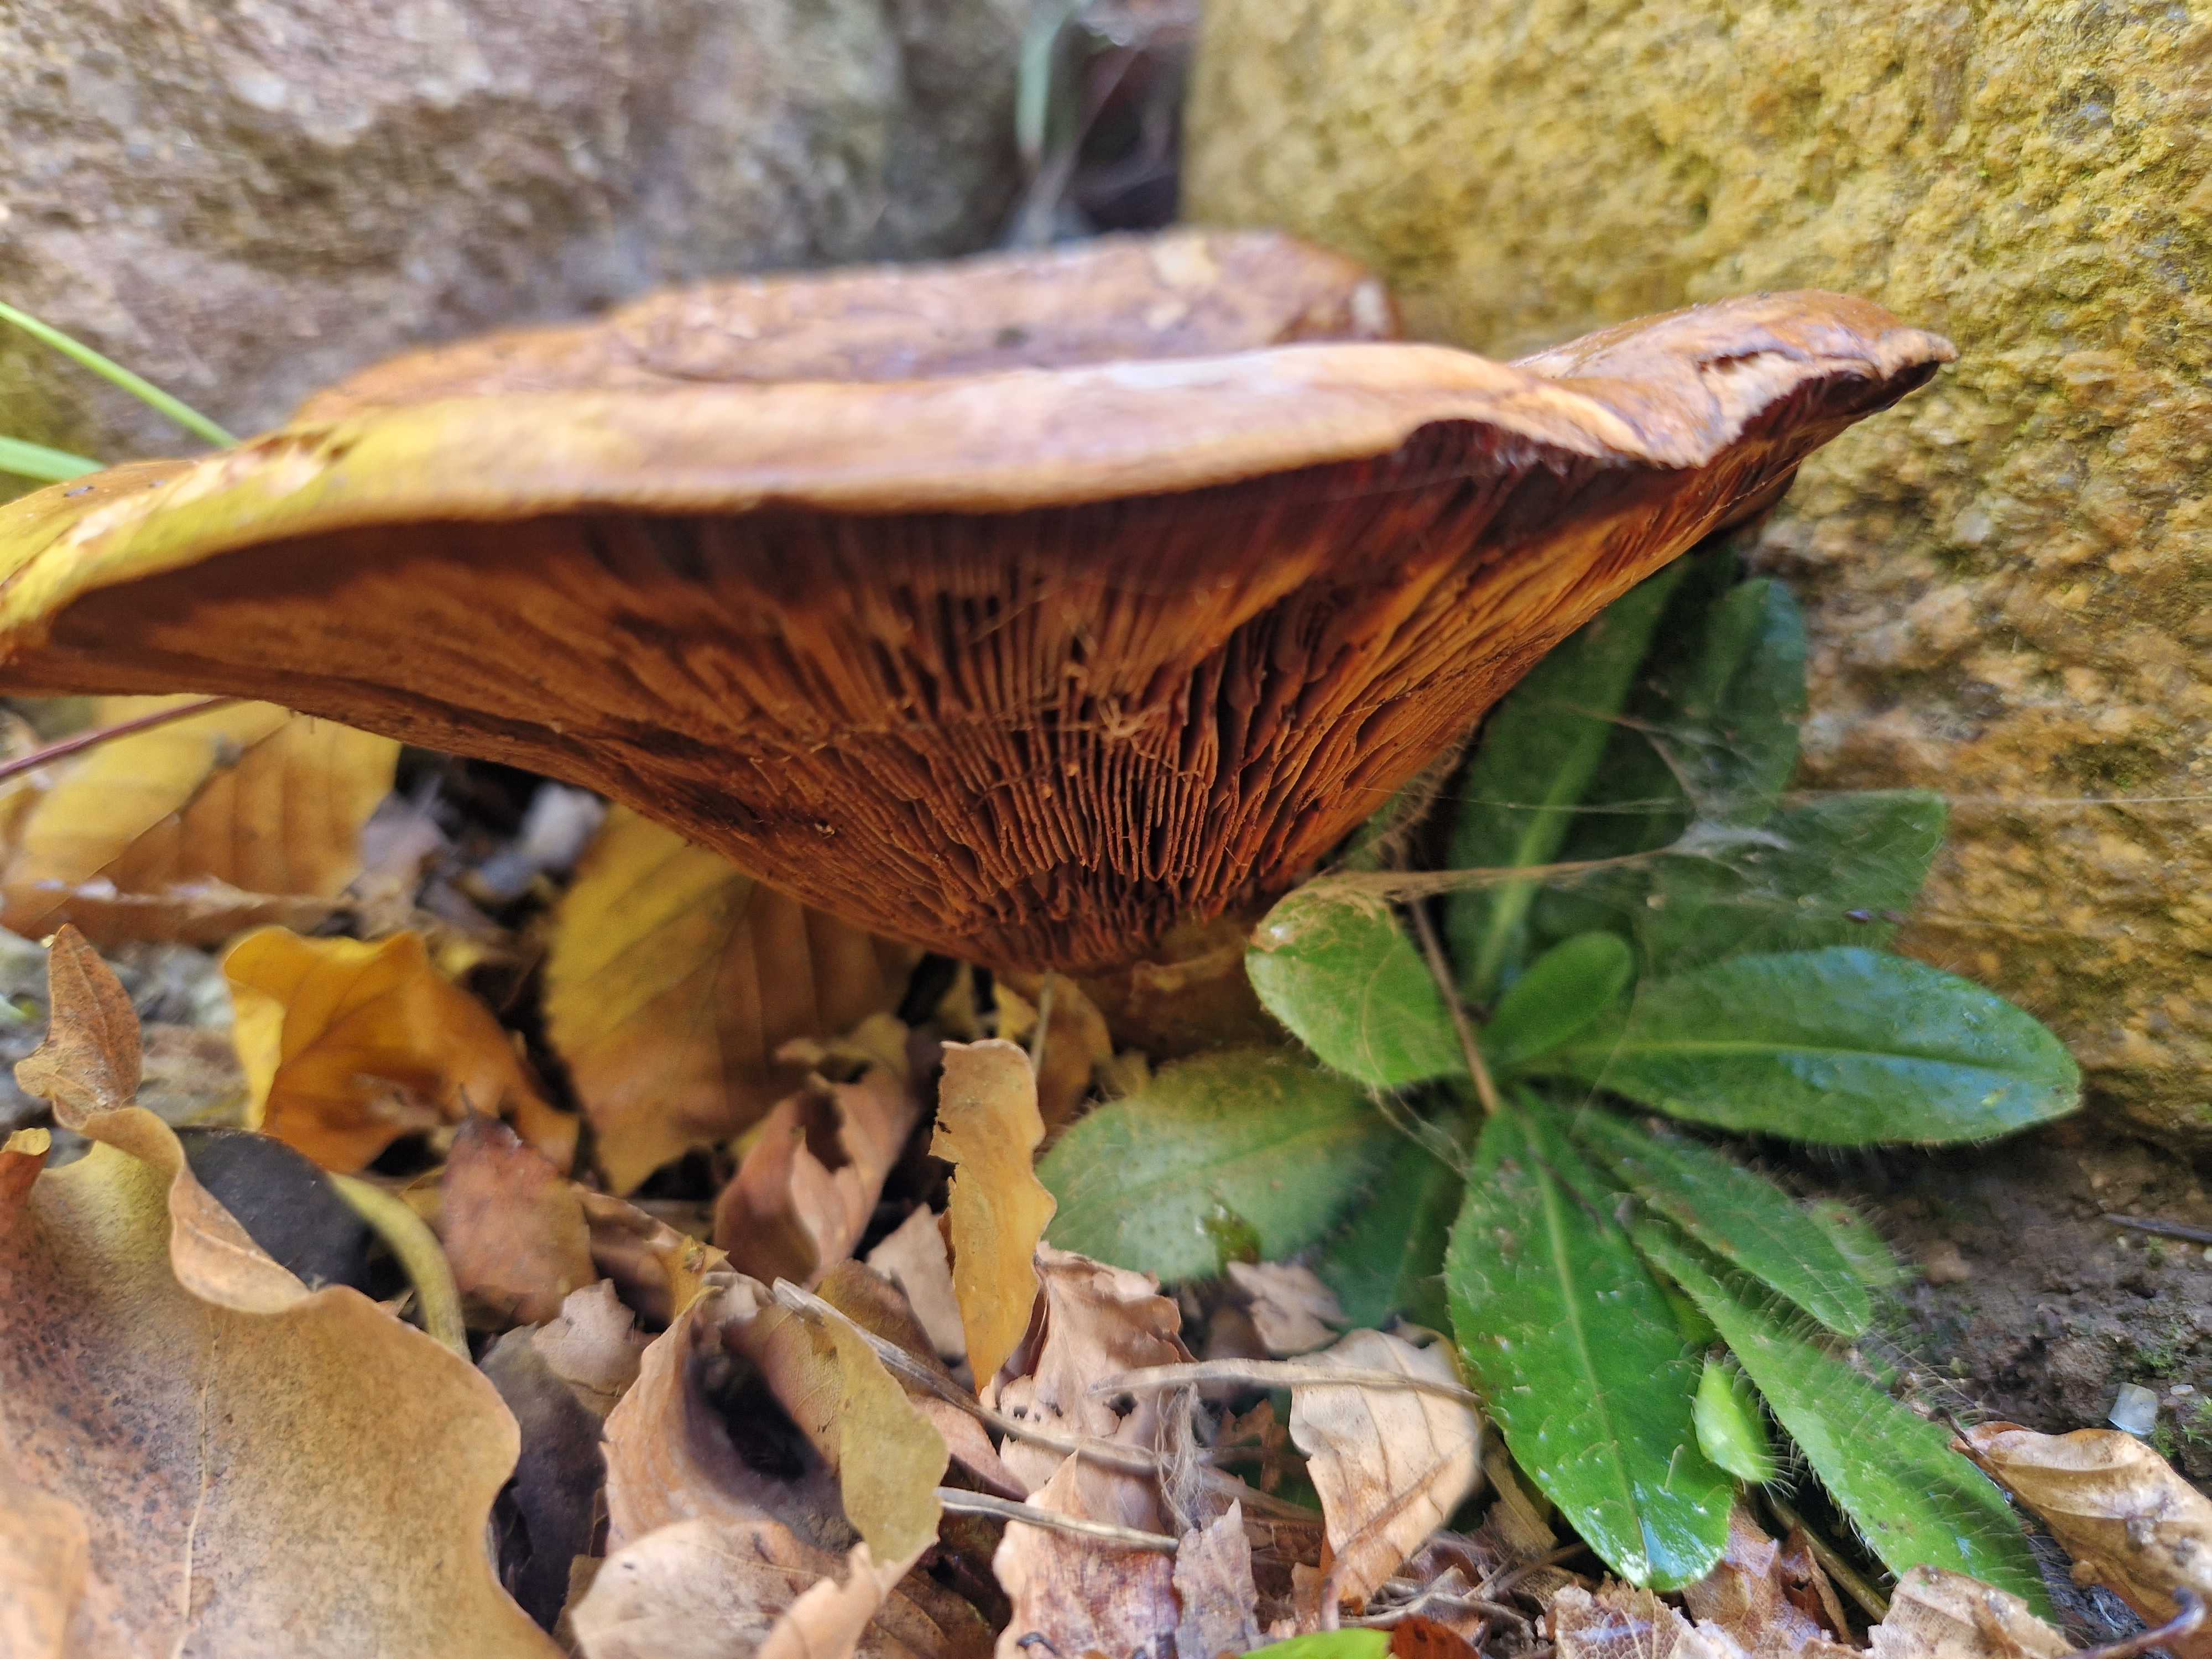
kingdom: Fungi
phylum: Basidiomycota
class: Agaricomycetes
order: Boletales
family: Paxillaceae
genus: Paxillus
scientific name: Paxillus
